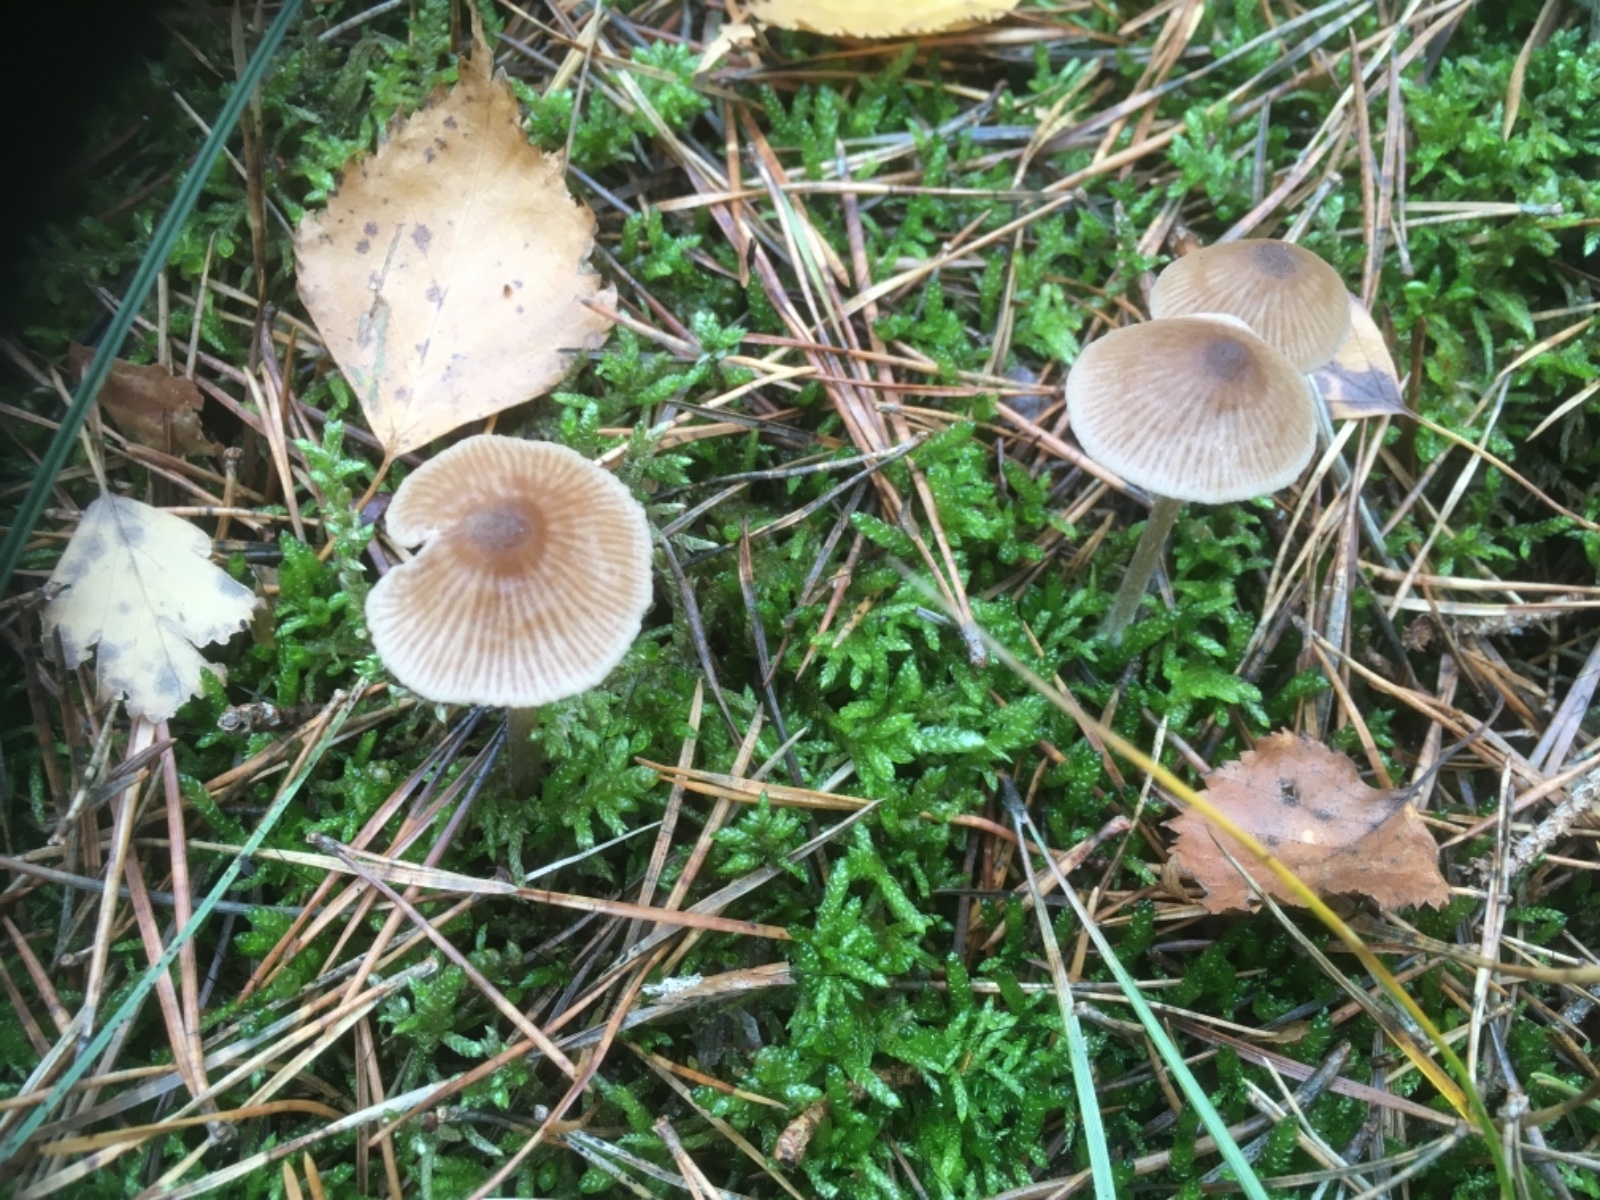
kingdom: Fungi
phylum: Basidiomycota
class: Agaricomycetes
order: Agaricales
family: Entolomataceae
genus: Entoloma
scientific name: Entoloma
